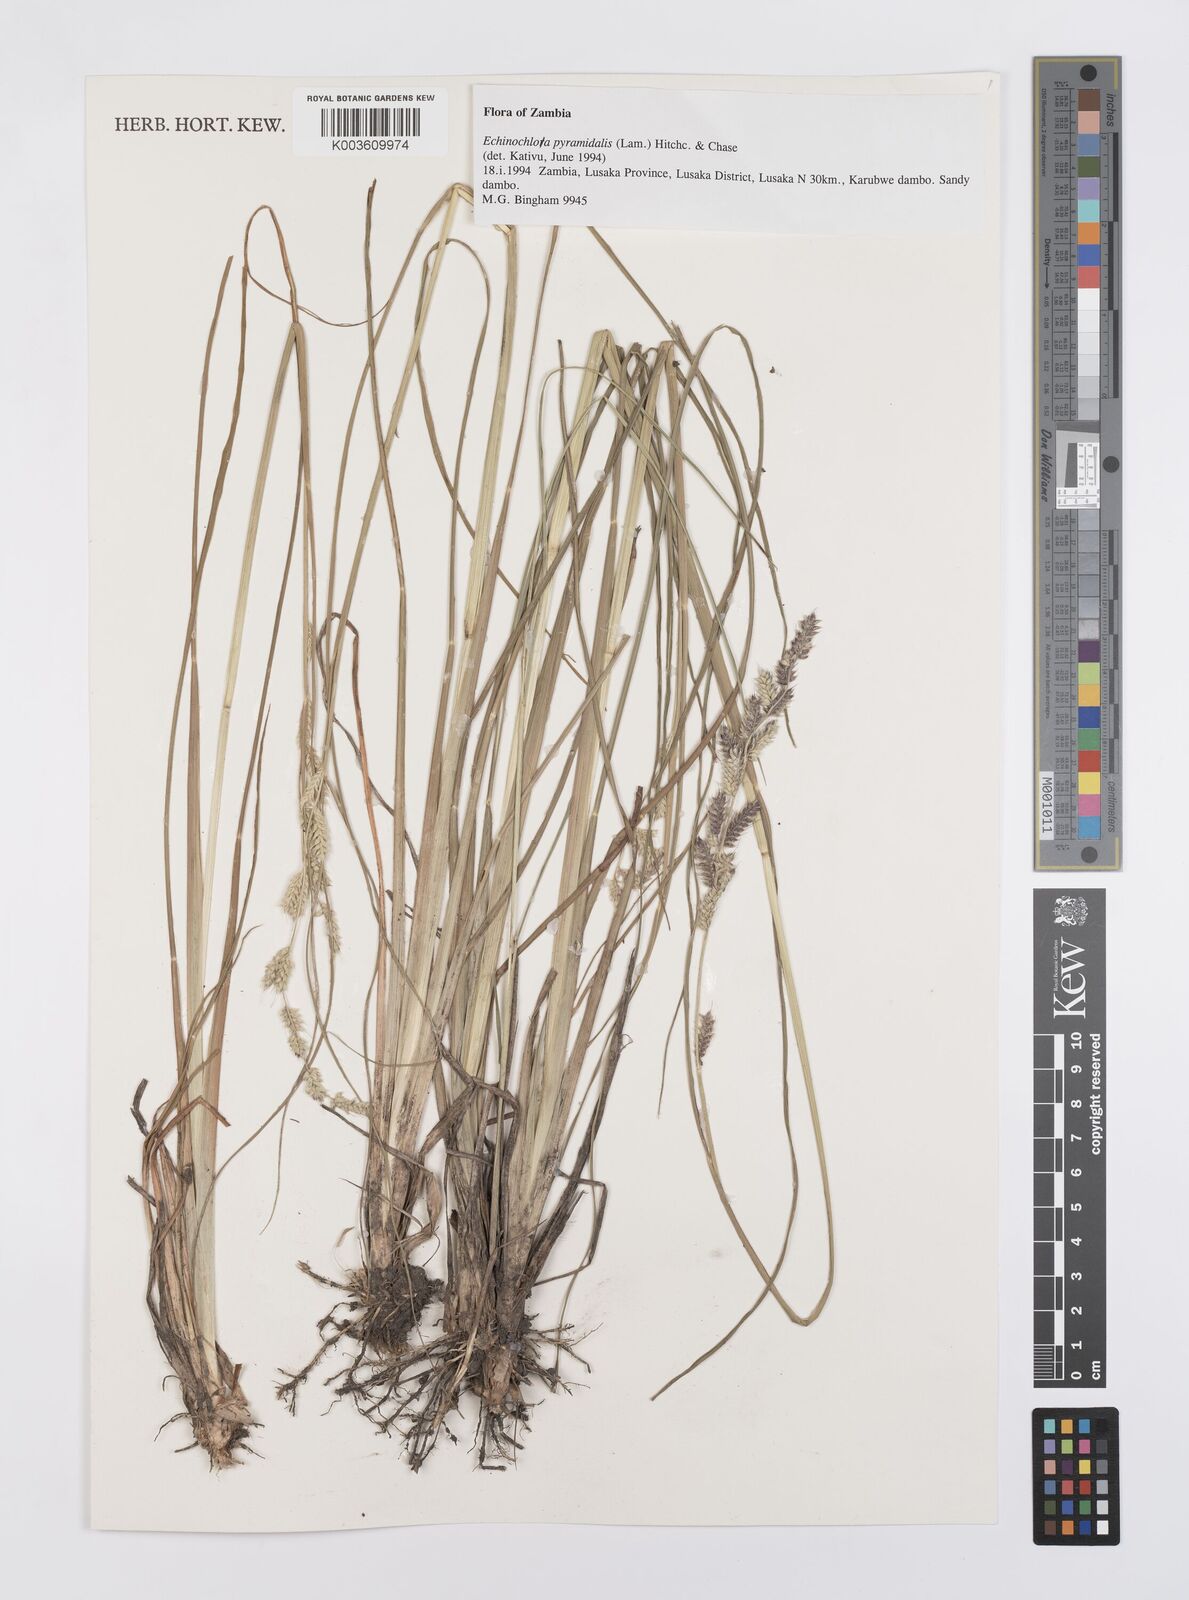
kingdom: Plantae
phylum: Tracheophyta
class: Liliopsida
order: Poales
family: Poaceae
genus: Echinochloa
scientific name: Echinochloa haploclada
